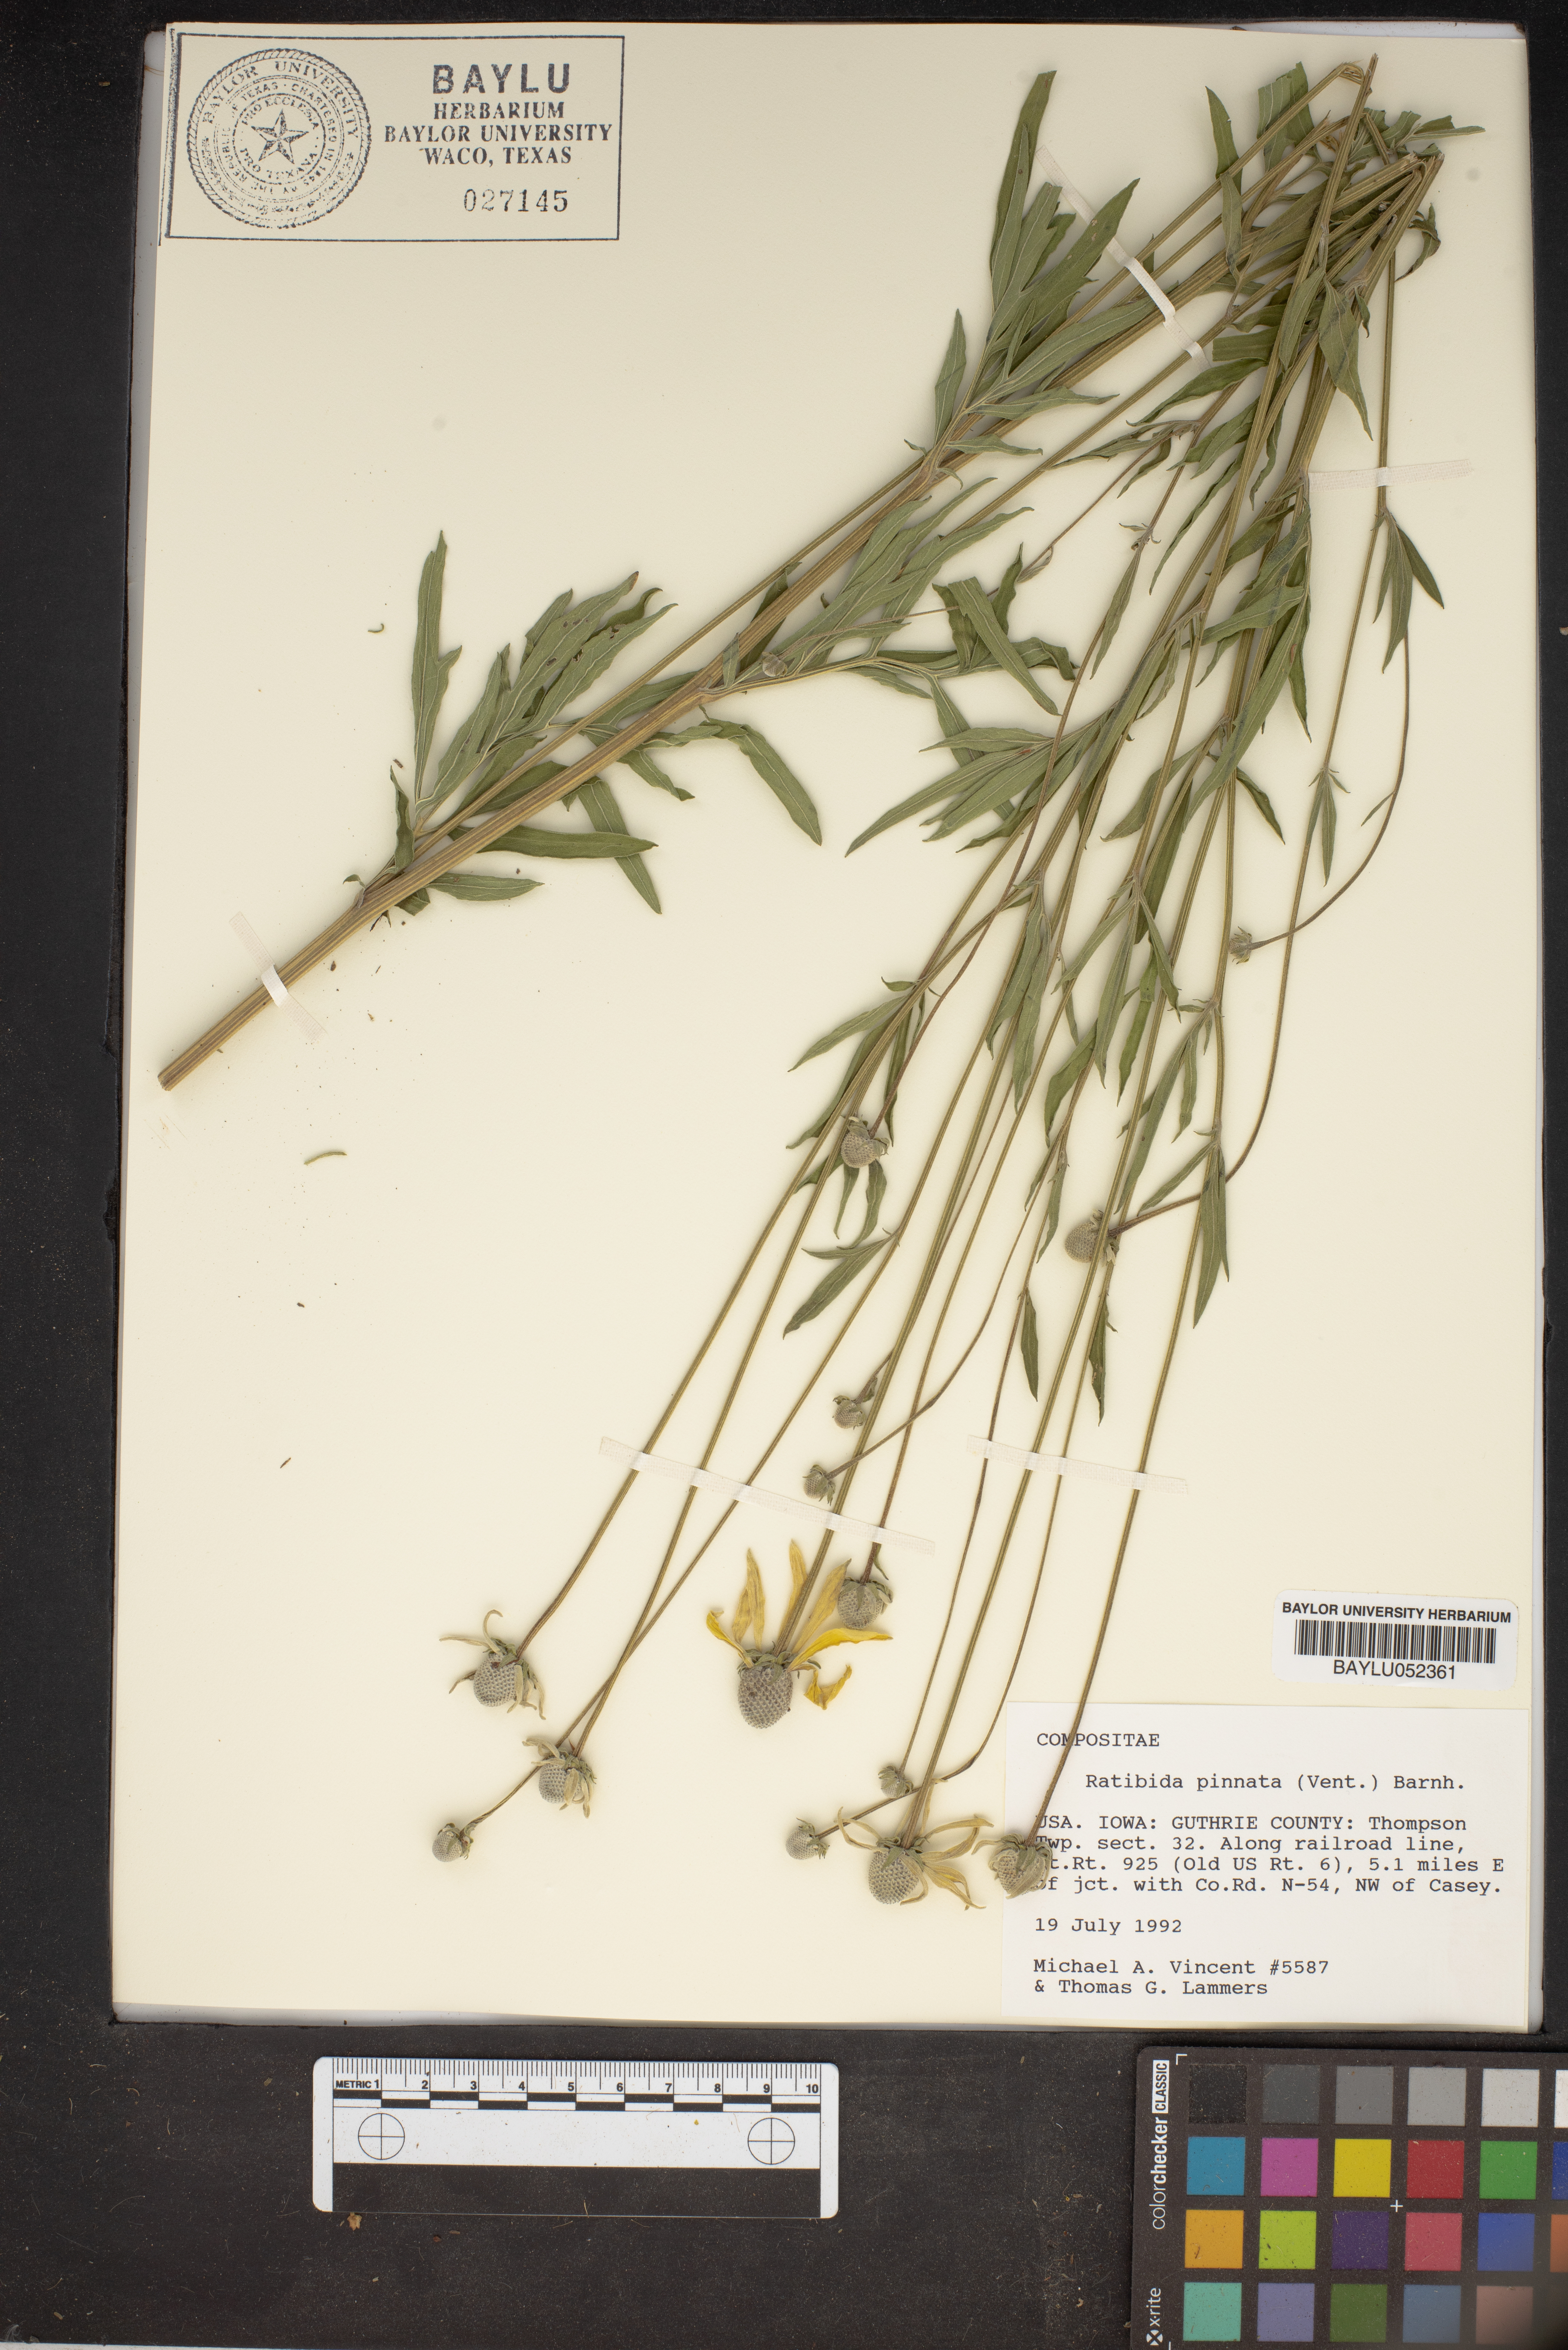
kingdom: Plantae
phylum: Tracheophyta
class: Magnoliopsida
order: Asterales
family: Asteraceae
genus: Ratibida
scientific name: Ratibida pinnata
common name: Drooping prairie-coneflower
